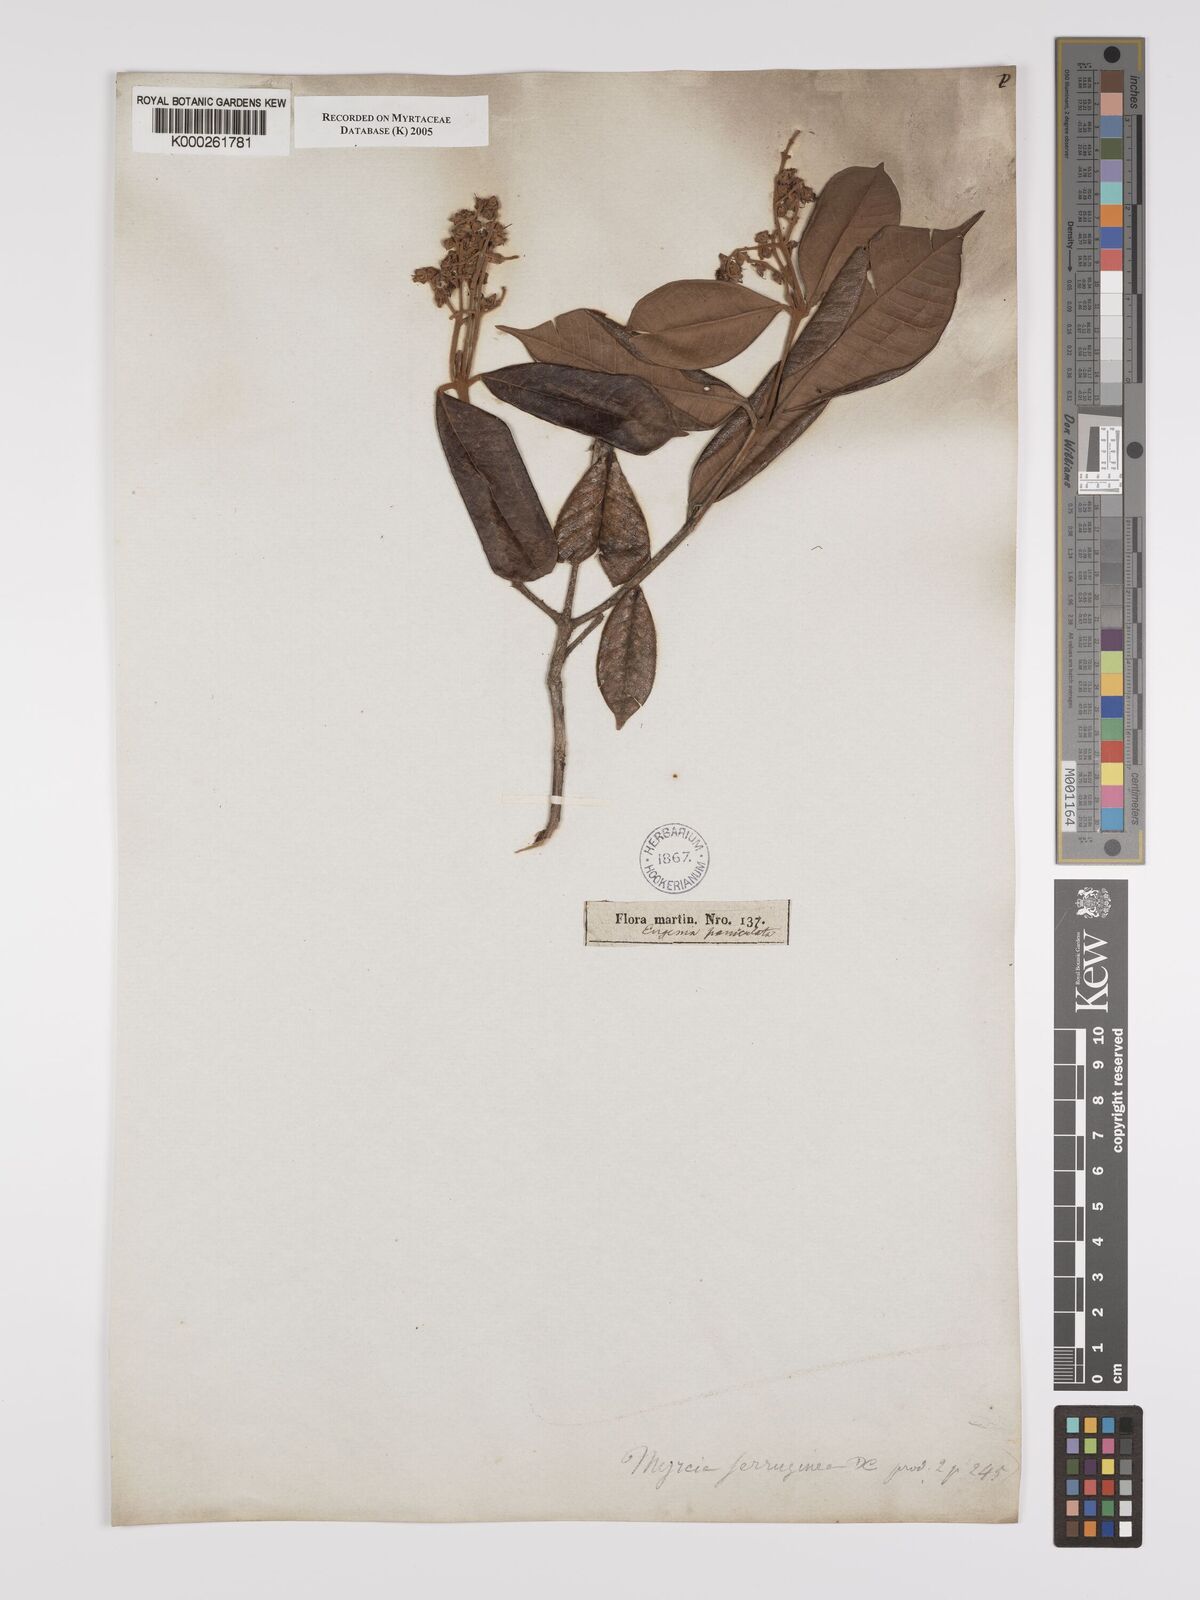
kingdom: Plantae
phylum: Tracheophyta
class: Magnoliopsida
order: Myrtales
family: Myrtaceae
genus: Myrcia
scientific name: Myrcia ferruginea
